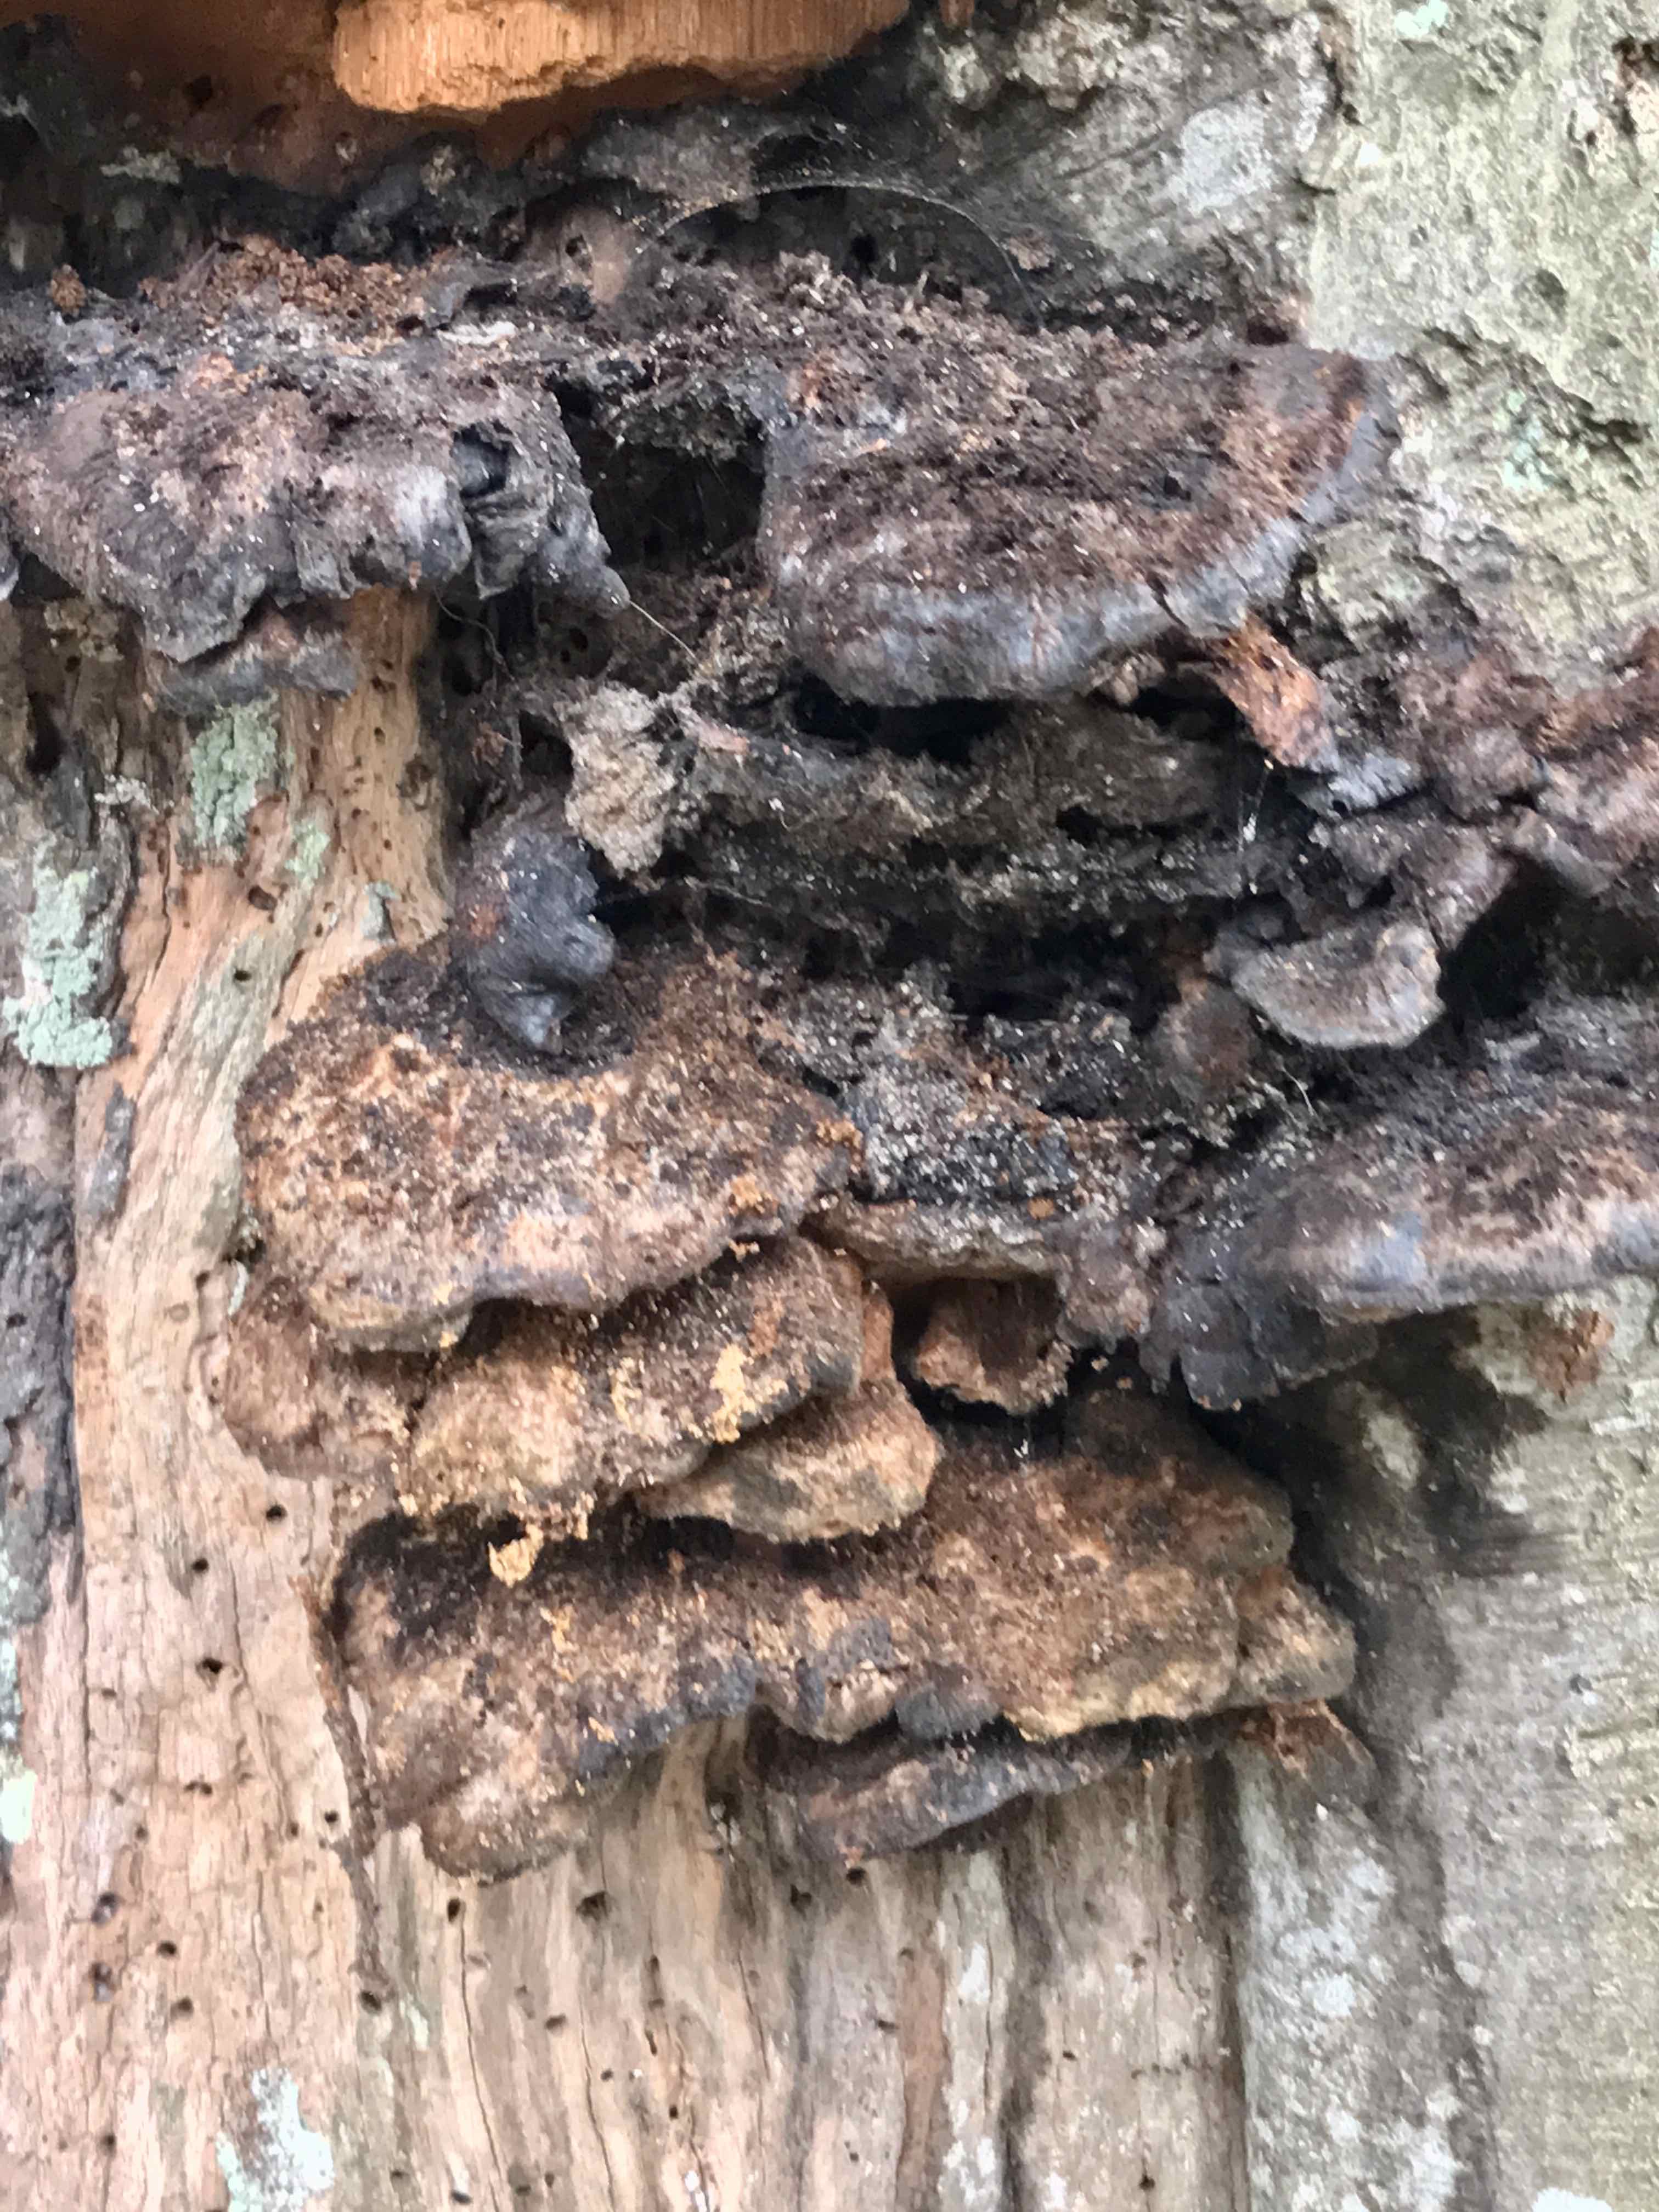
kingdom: Fungi
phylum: Basidiomycota
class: Agaricomycetes
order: Hymenochaetales
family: Hymenochaetaceae
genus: Inonotus
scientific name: Inonotus cuticularis
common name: kroghåret spejlporesvamp
